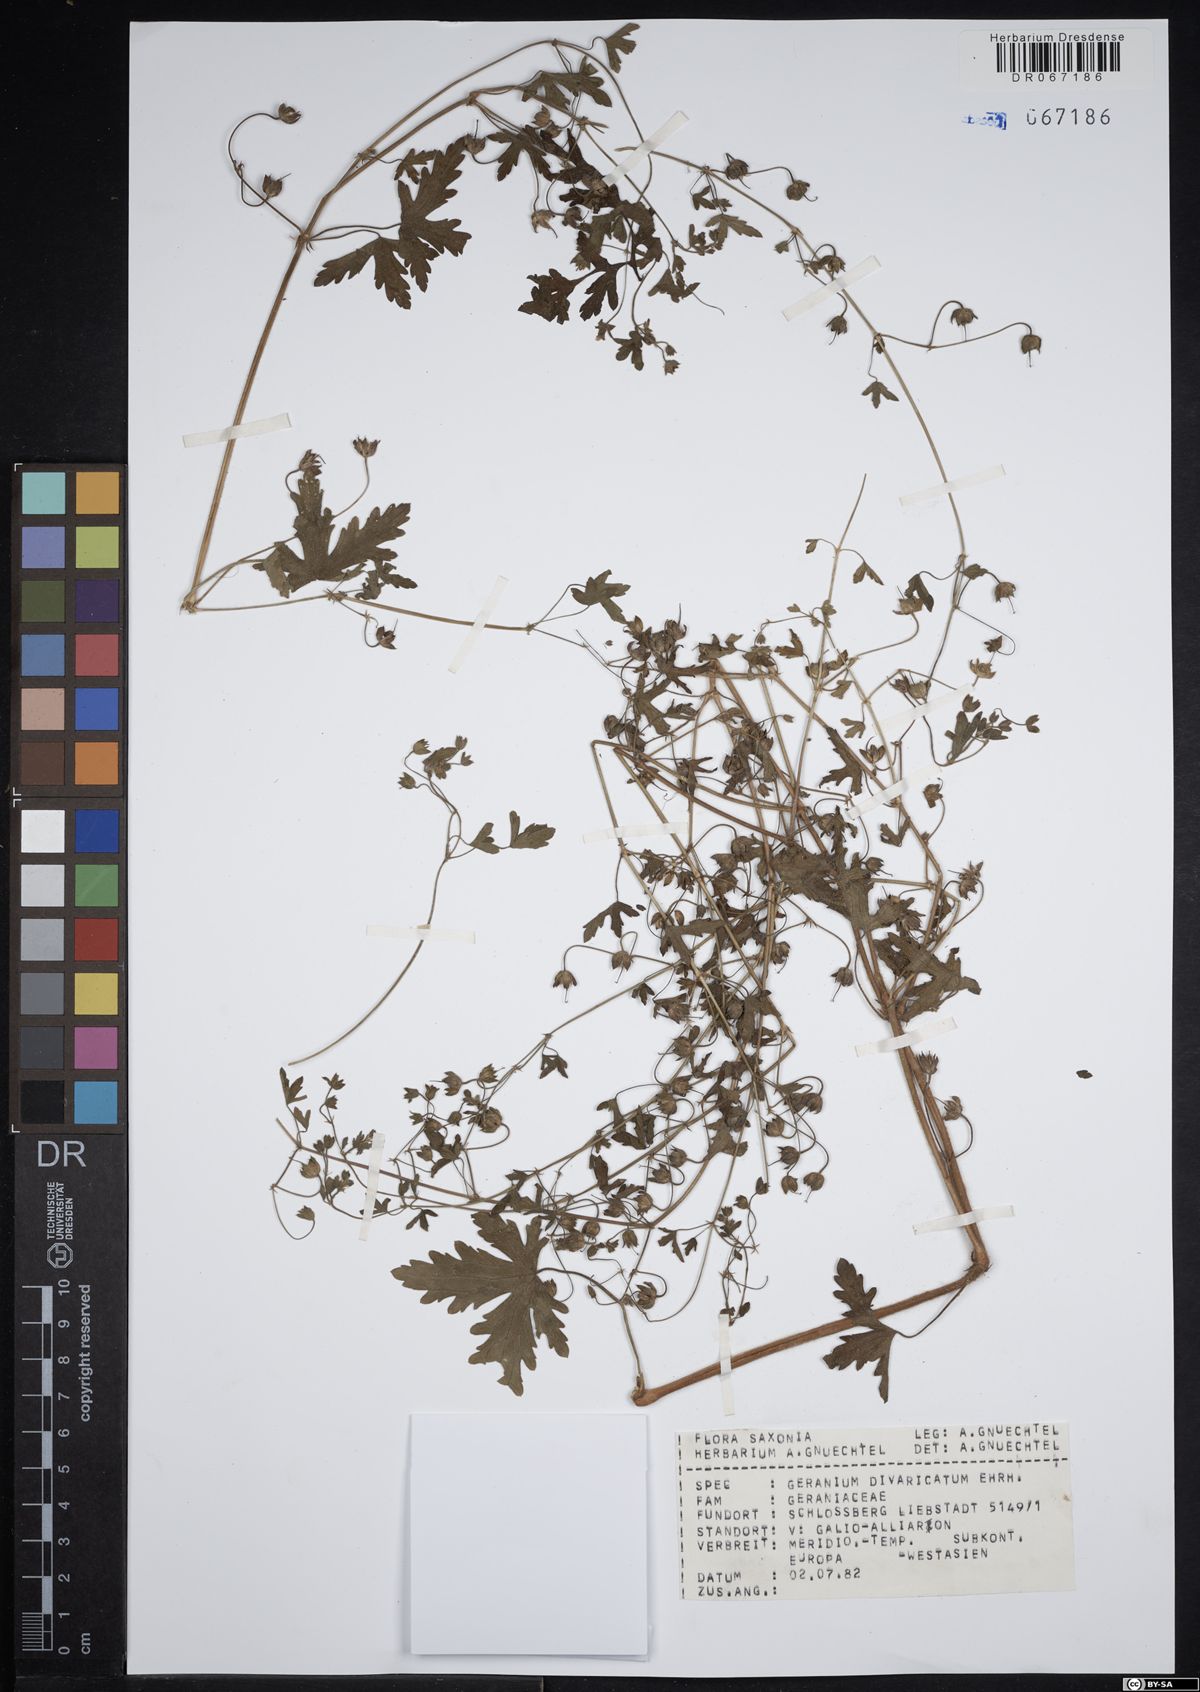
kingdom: Plantae
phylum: Tracheophyta
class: Magnoliopsida
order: Geraniales
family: Geraniaceae
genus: Geranium
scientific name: Geranium divaricatum
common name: Spreading crane's-bill
